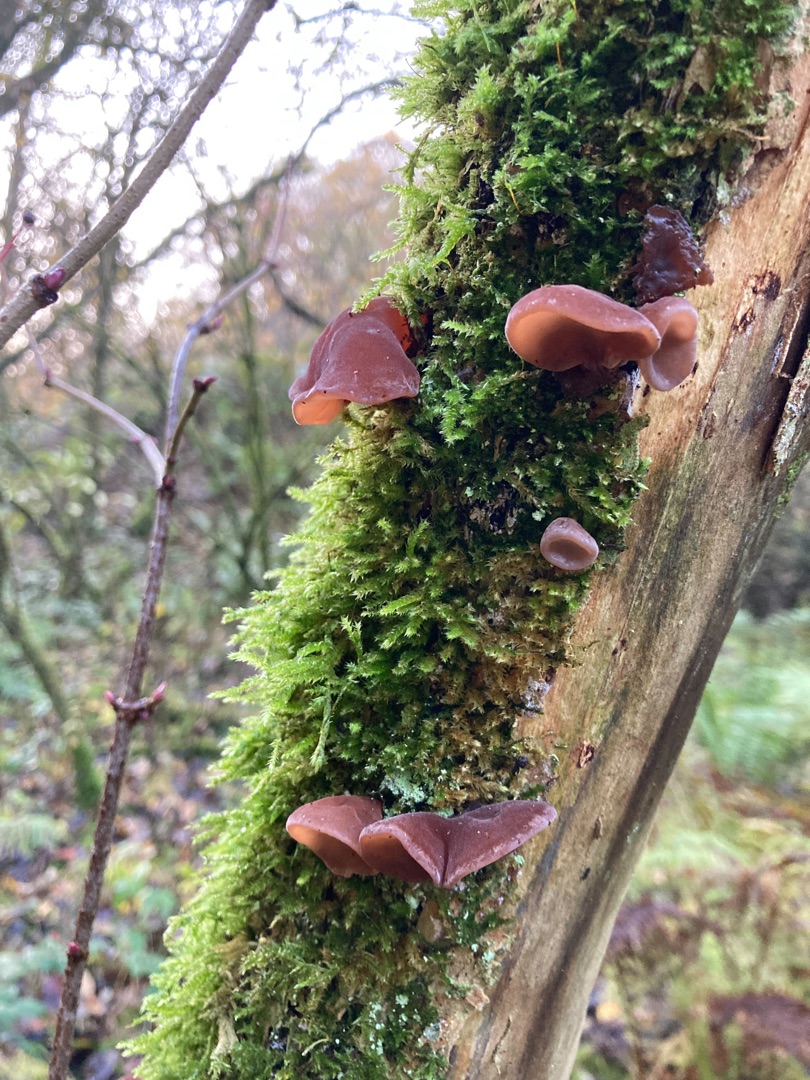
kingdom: Fungi
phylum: Basidiomycota
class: Agaricomycetes
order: Auriculariales
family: Auriculariaceae
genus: Auricularia
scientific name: Auricularia auricula-judae
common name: Almindelig judasøre
